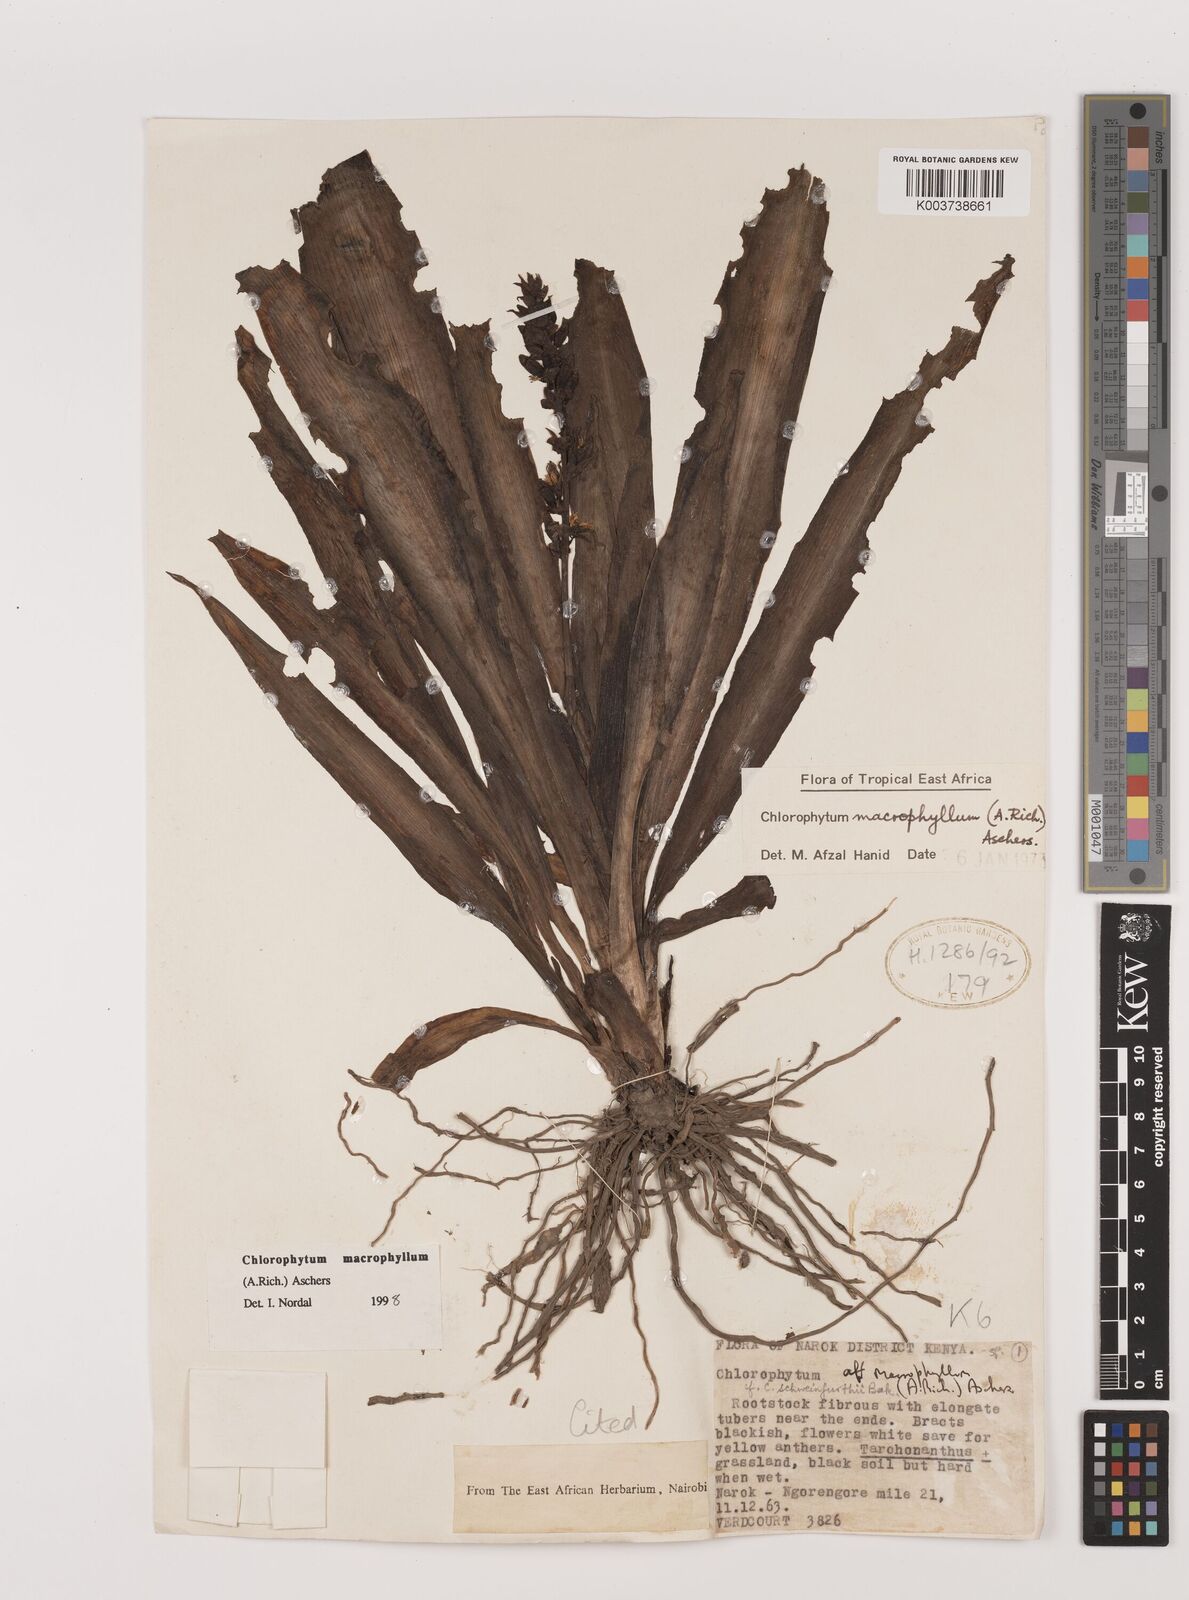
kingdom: Plantae
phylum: Tracheophyta
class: Liliopsida
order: Asparagales
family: Asparagaceae
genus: Chlorophytum
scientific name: Chlorophytum macrophyllum
